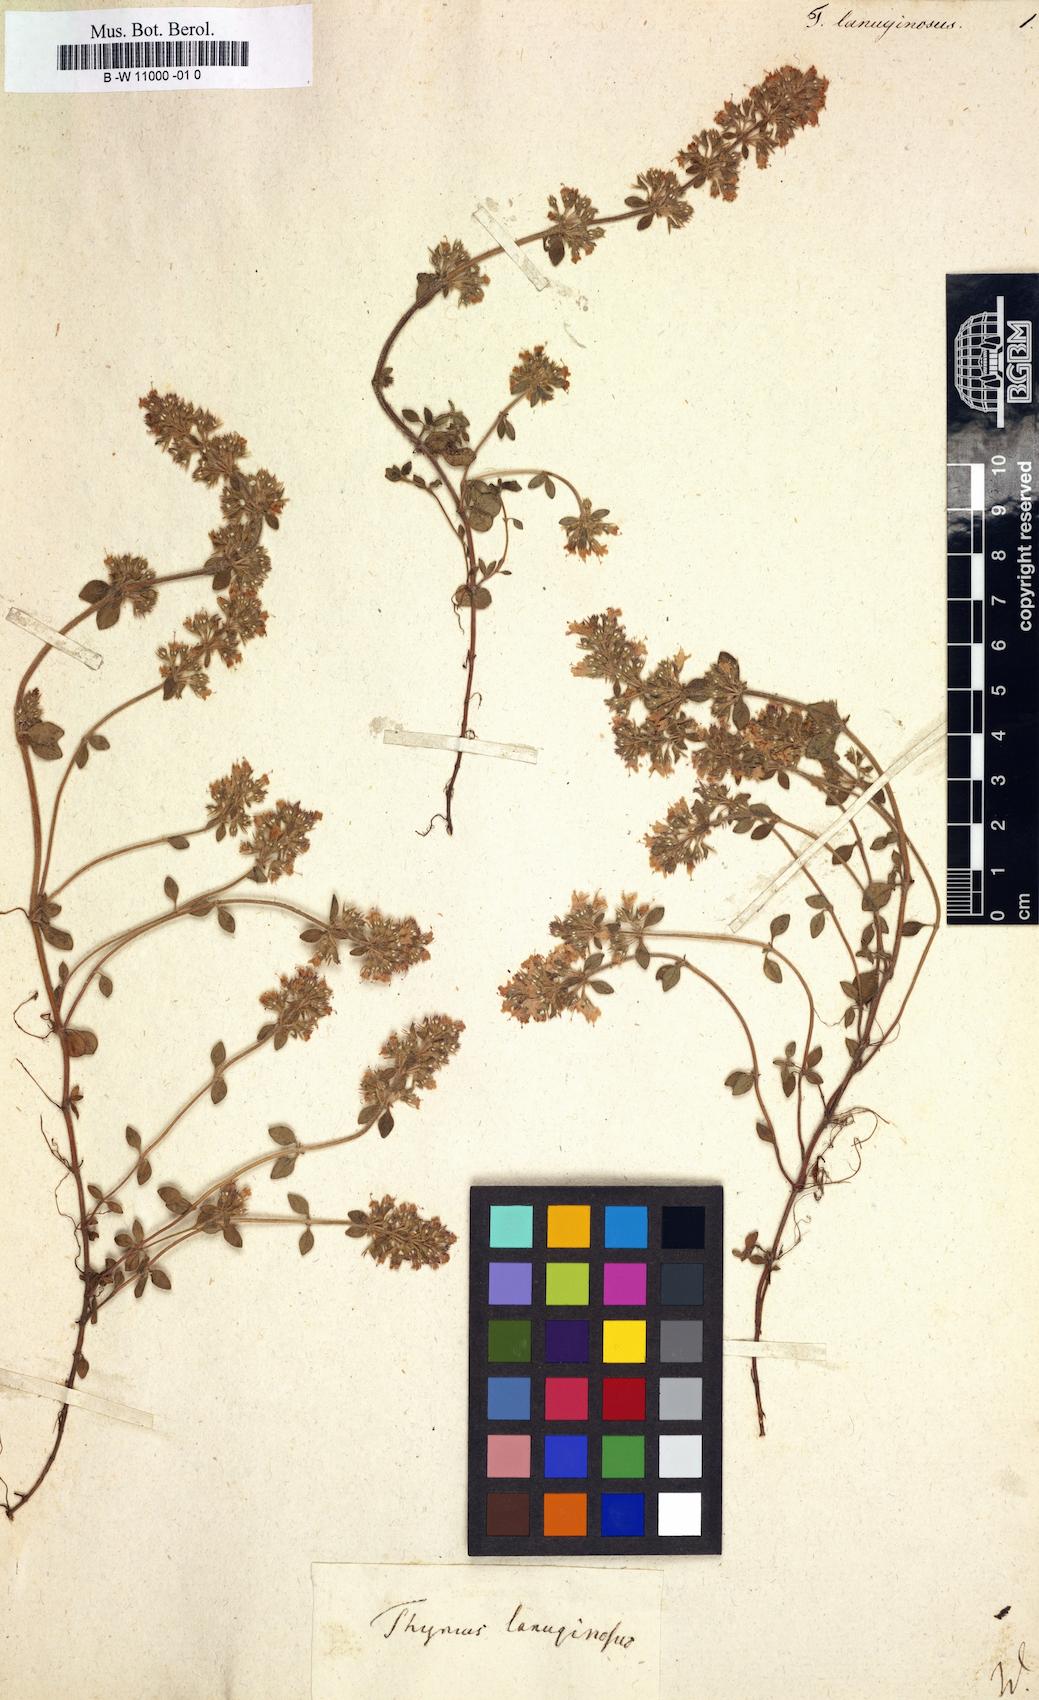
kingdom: Plantae
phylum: Tracheophyta
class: Magnoliopsida
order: Lamiales
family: Lamiaceae
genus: Thymus
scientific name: Thymus pulegioides
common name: Large thyme
